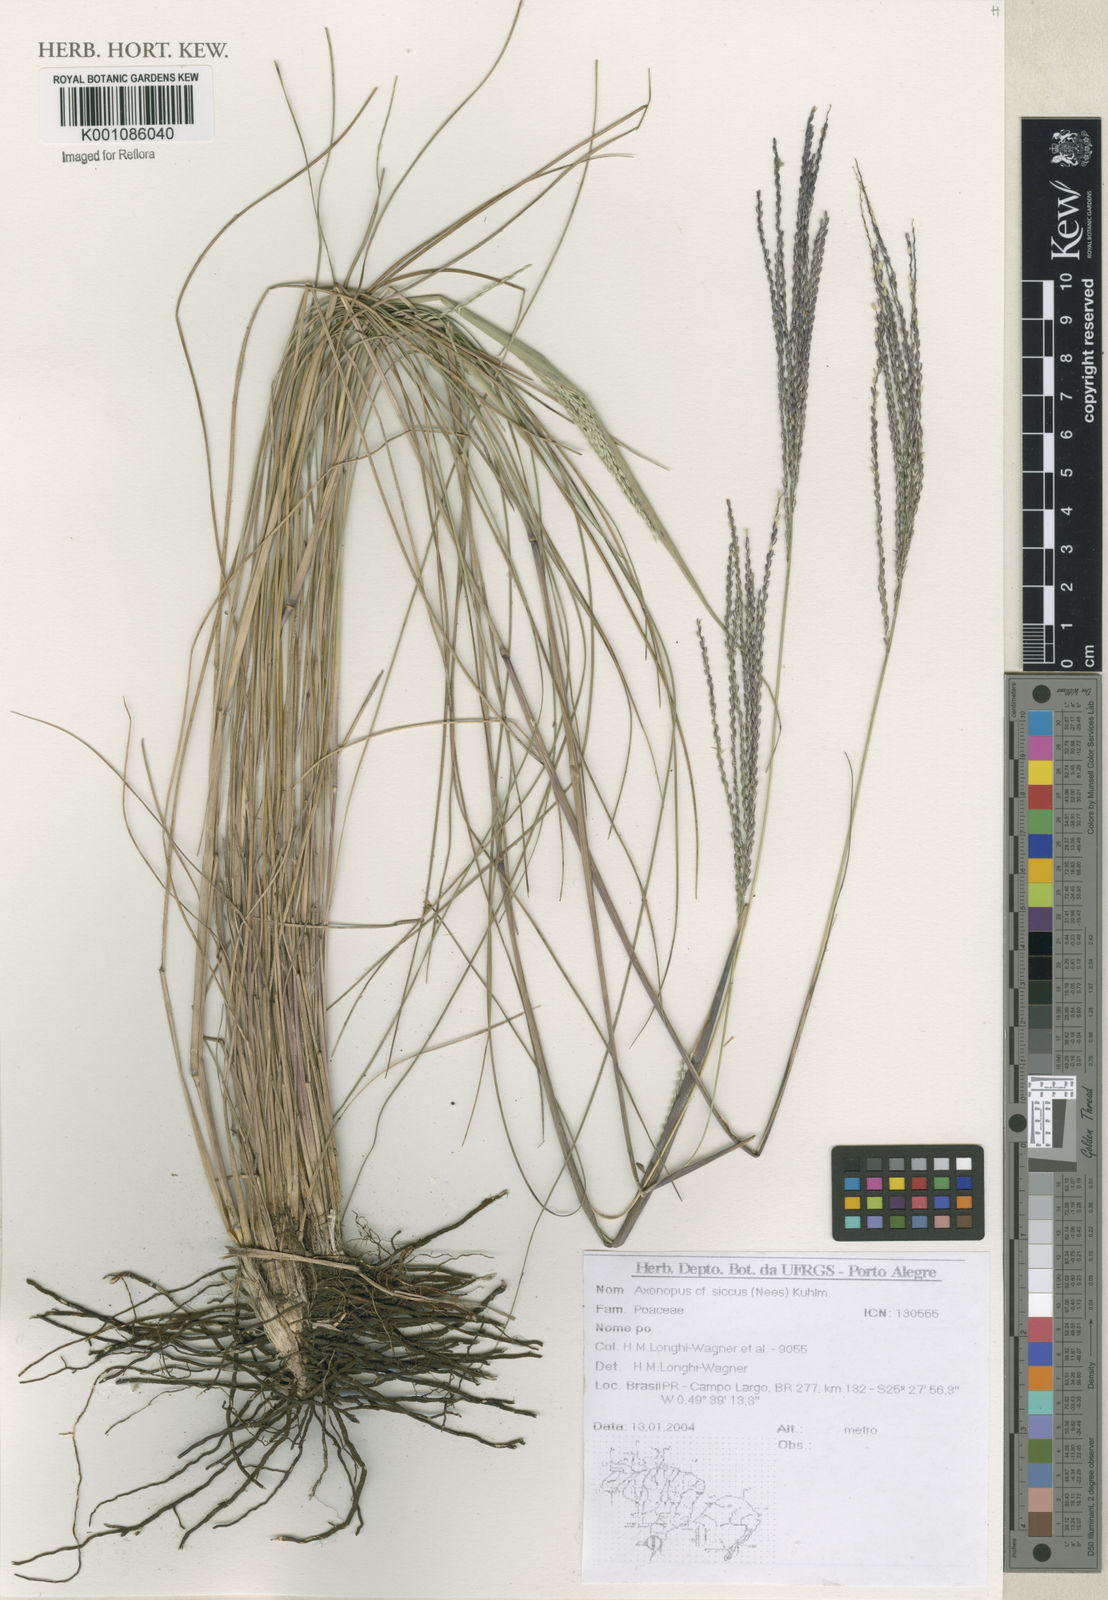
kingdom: Plantae
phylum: Tracheophyta
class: Liliopsida
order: Poales
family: Poaceae
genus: Axonopus
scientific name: Axonopus siccus
